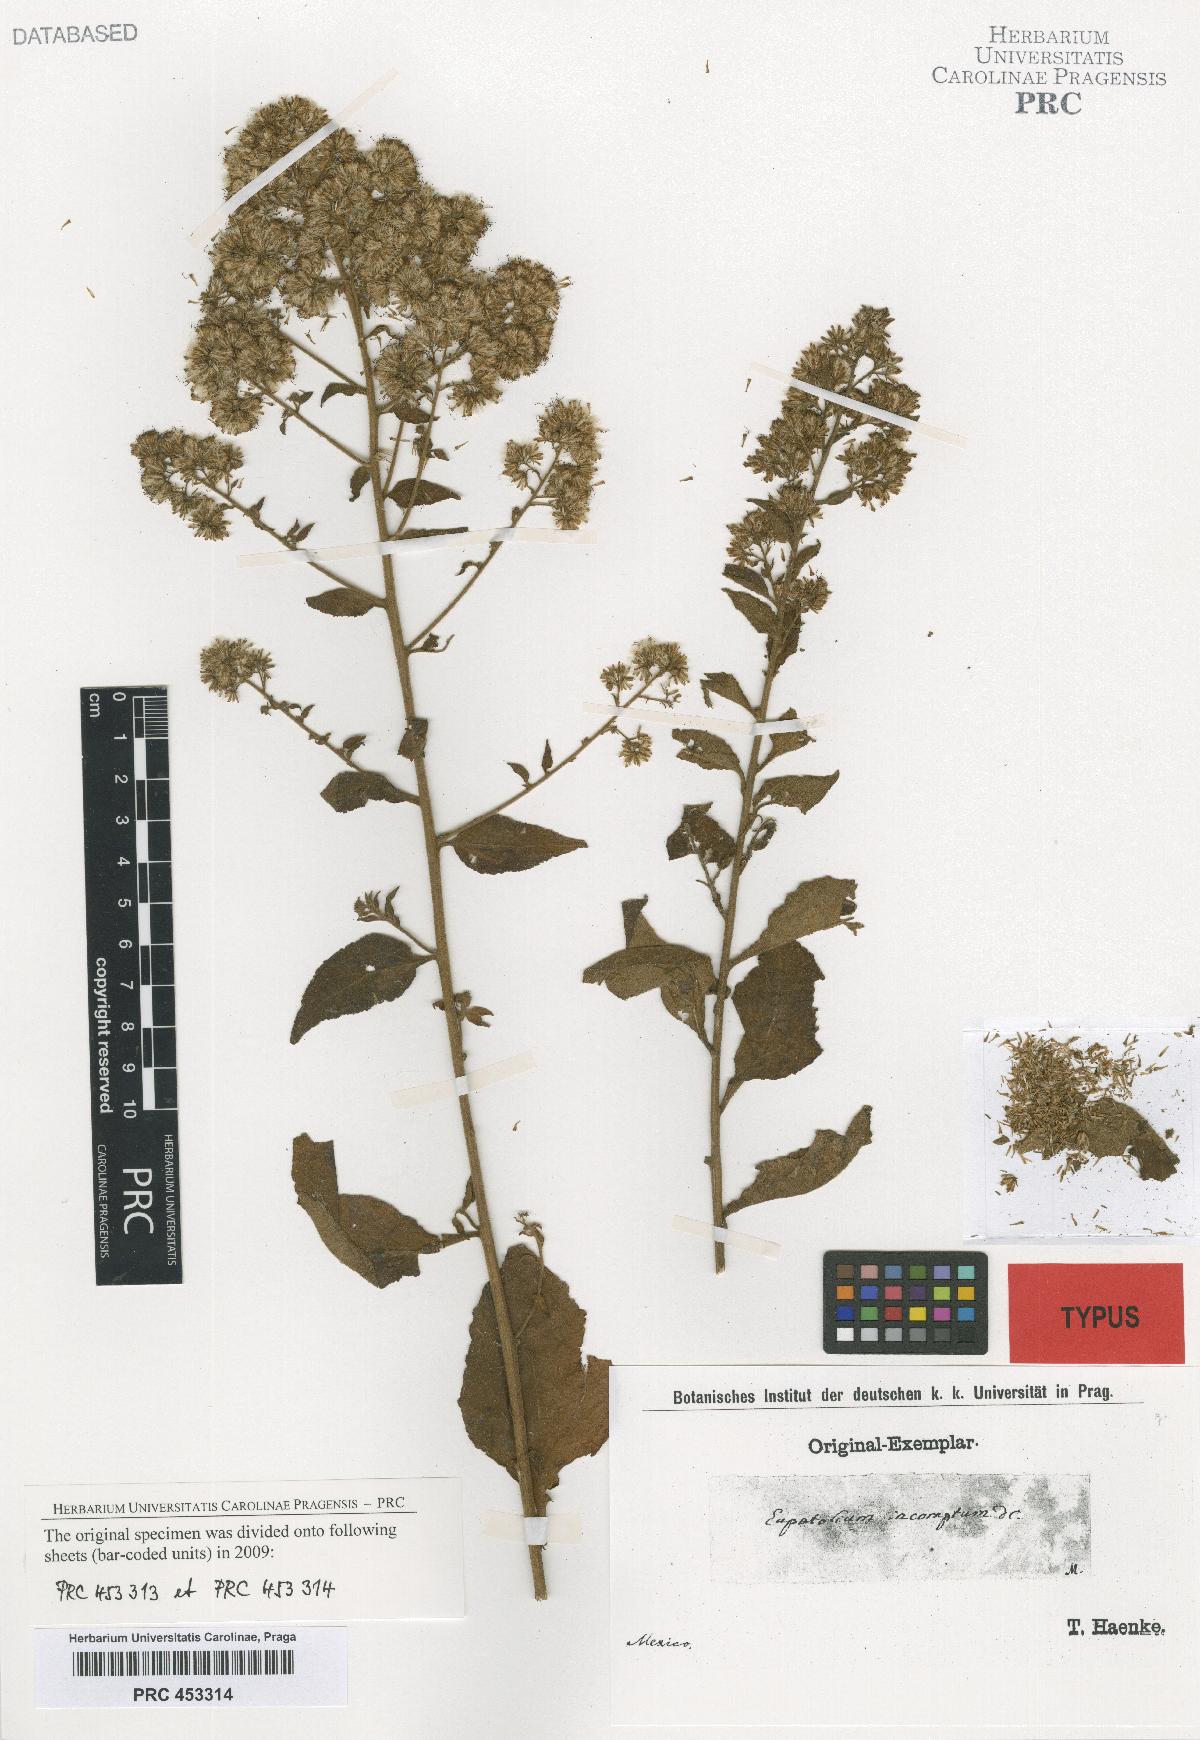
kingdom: Plantae
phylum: Tracheophyta
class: Magnoliopsida
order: Asterales
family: Asteraceae
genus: Decachaeta
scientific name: Decachaeta incompta
